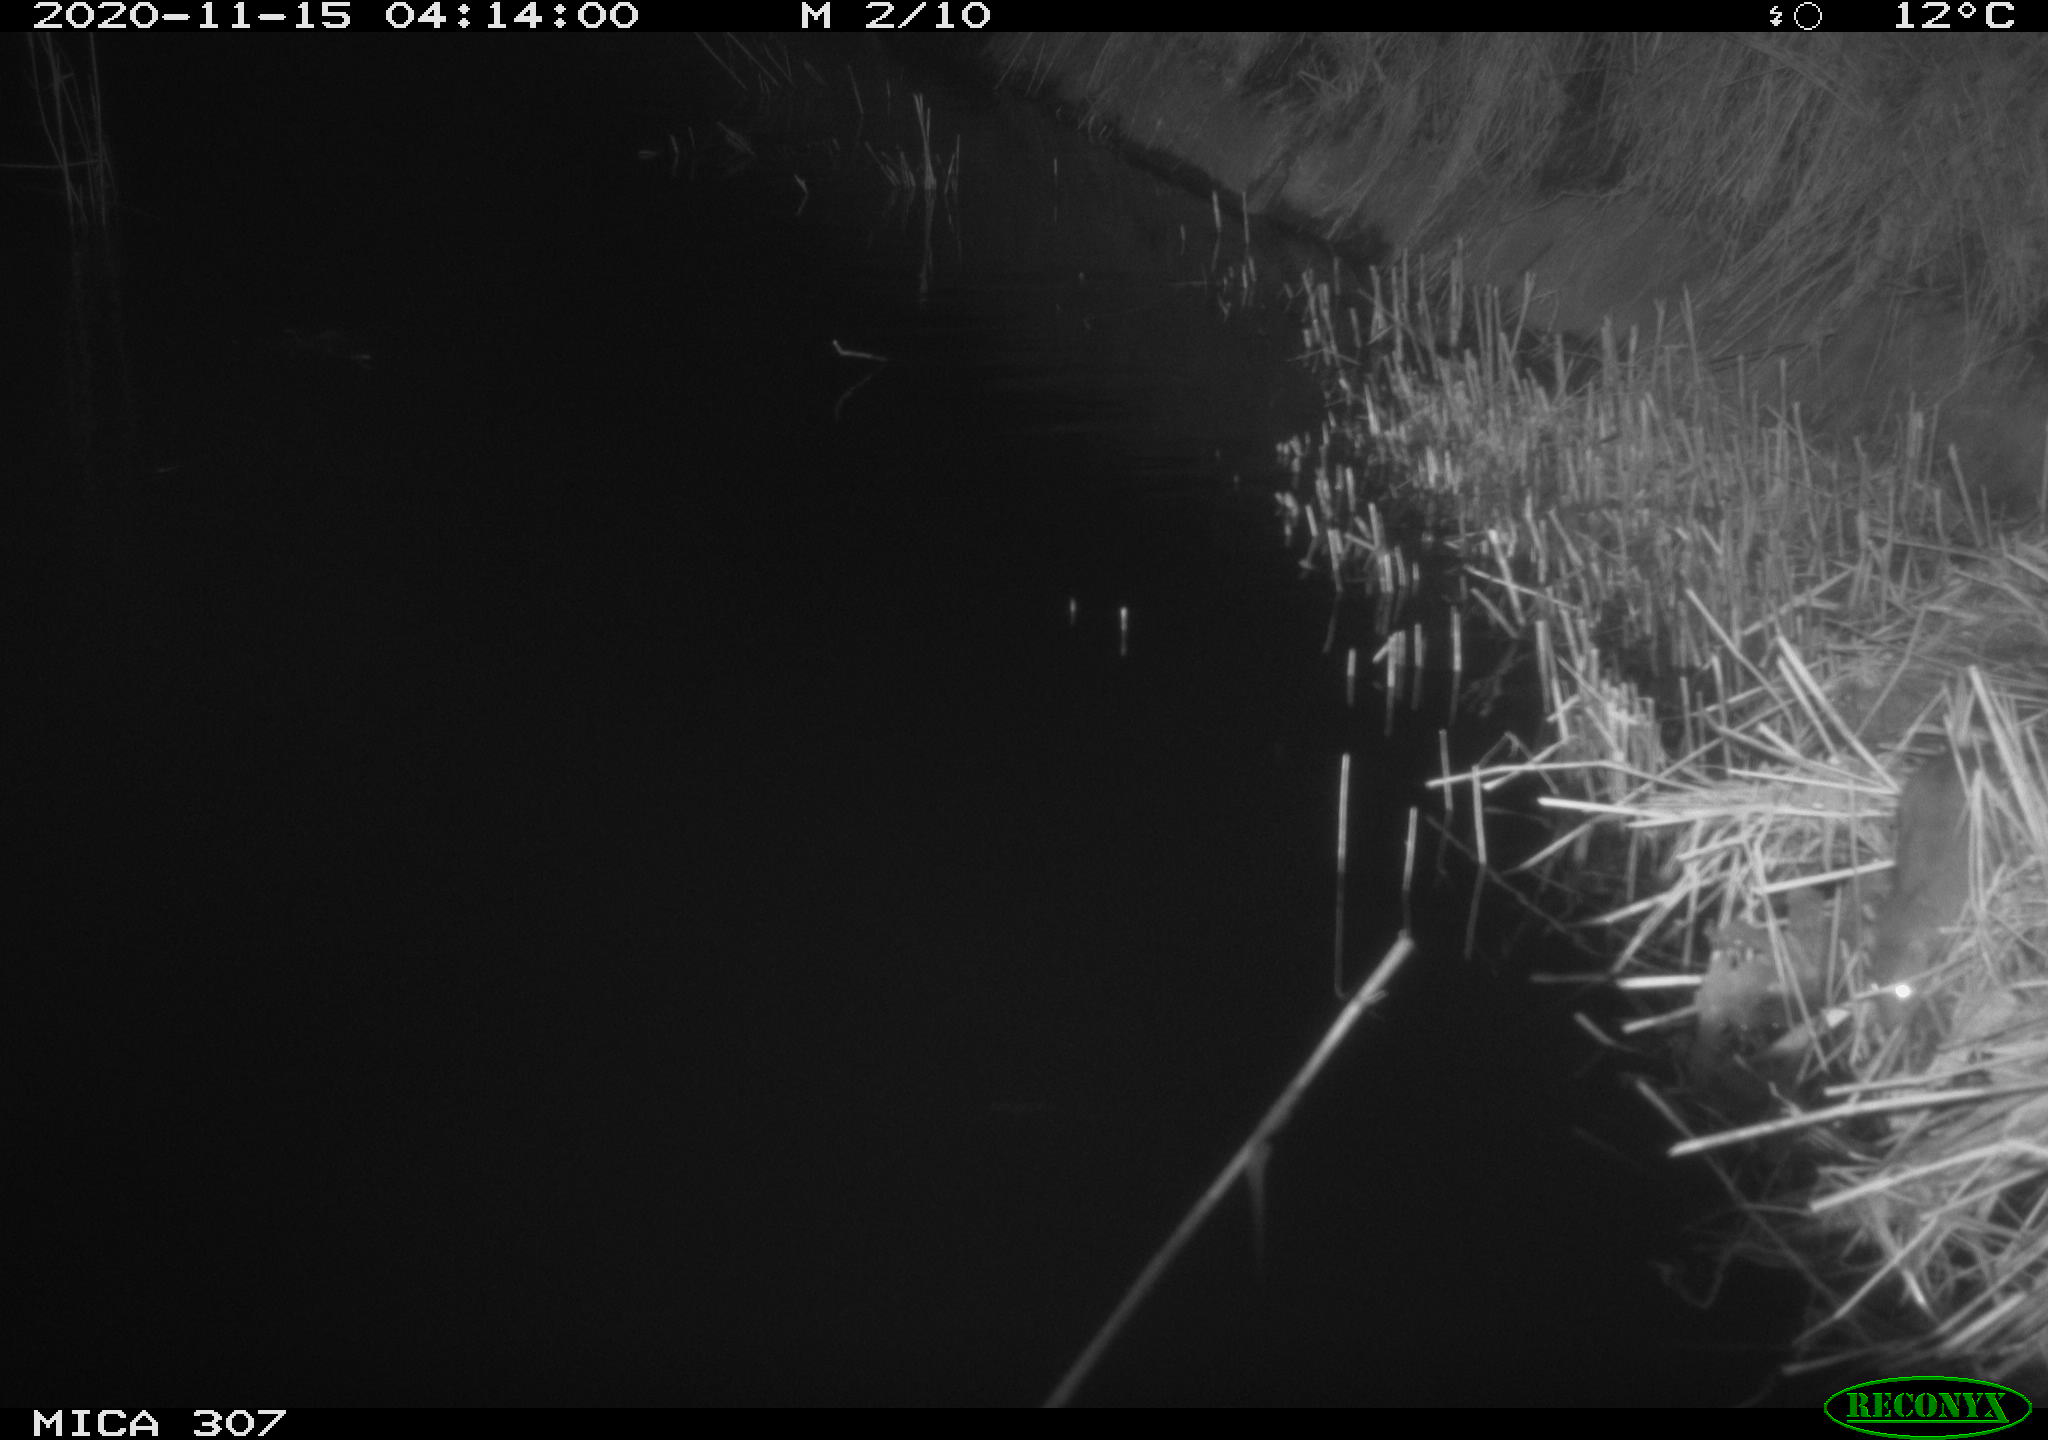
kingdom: Animalia
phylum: Chordata
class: Mammalia
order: Rodentia
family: Muridae
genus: Rattus
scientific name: Rattus norvegicus
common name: Brown rat
